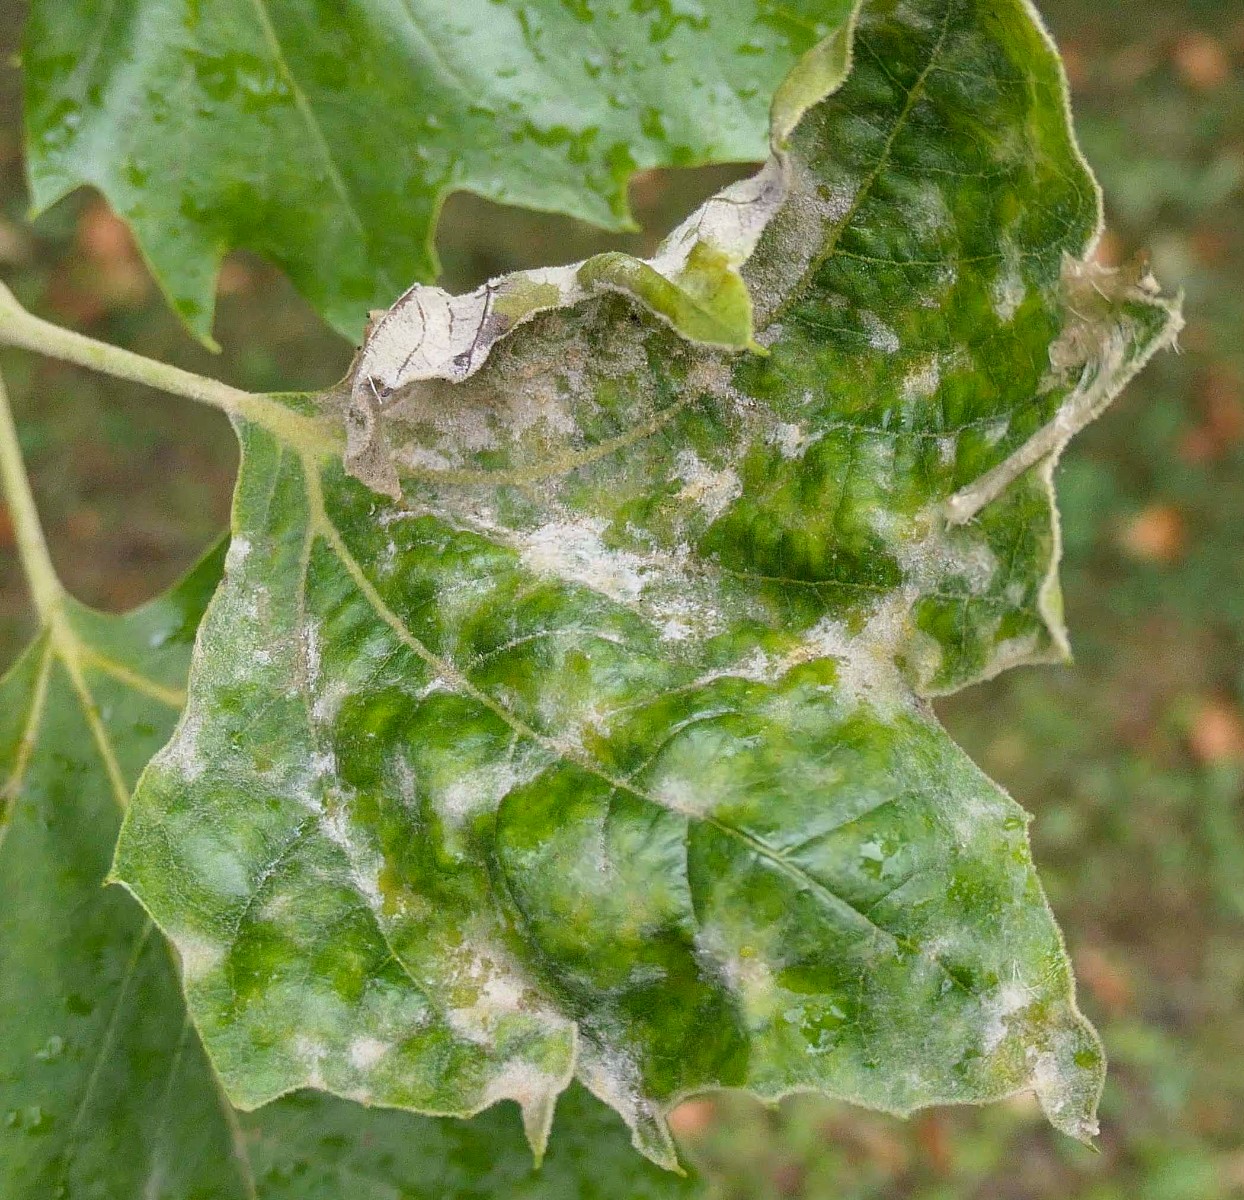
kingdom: Fungi
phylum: Ascomycota
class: Leotiomycetes
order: Helotiales
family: Erysiphaceae
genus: Erysiphe
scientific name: Erysiphe platani
